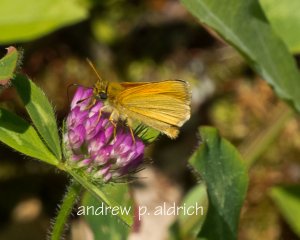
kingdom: Animalia
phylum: Arthropoda
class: Insecta
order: Lepidoptera
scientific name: Lepidoptera
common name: Butterflies
